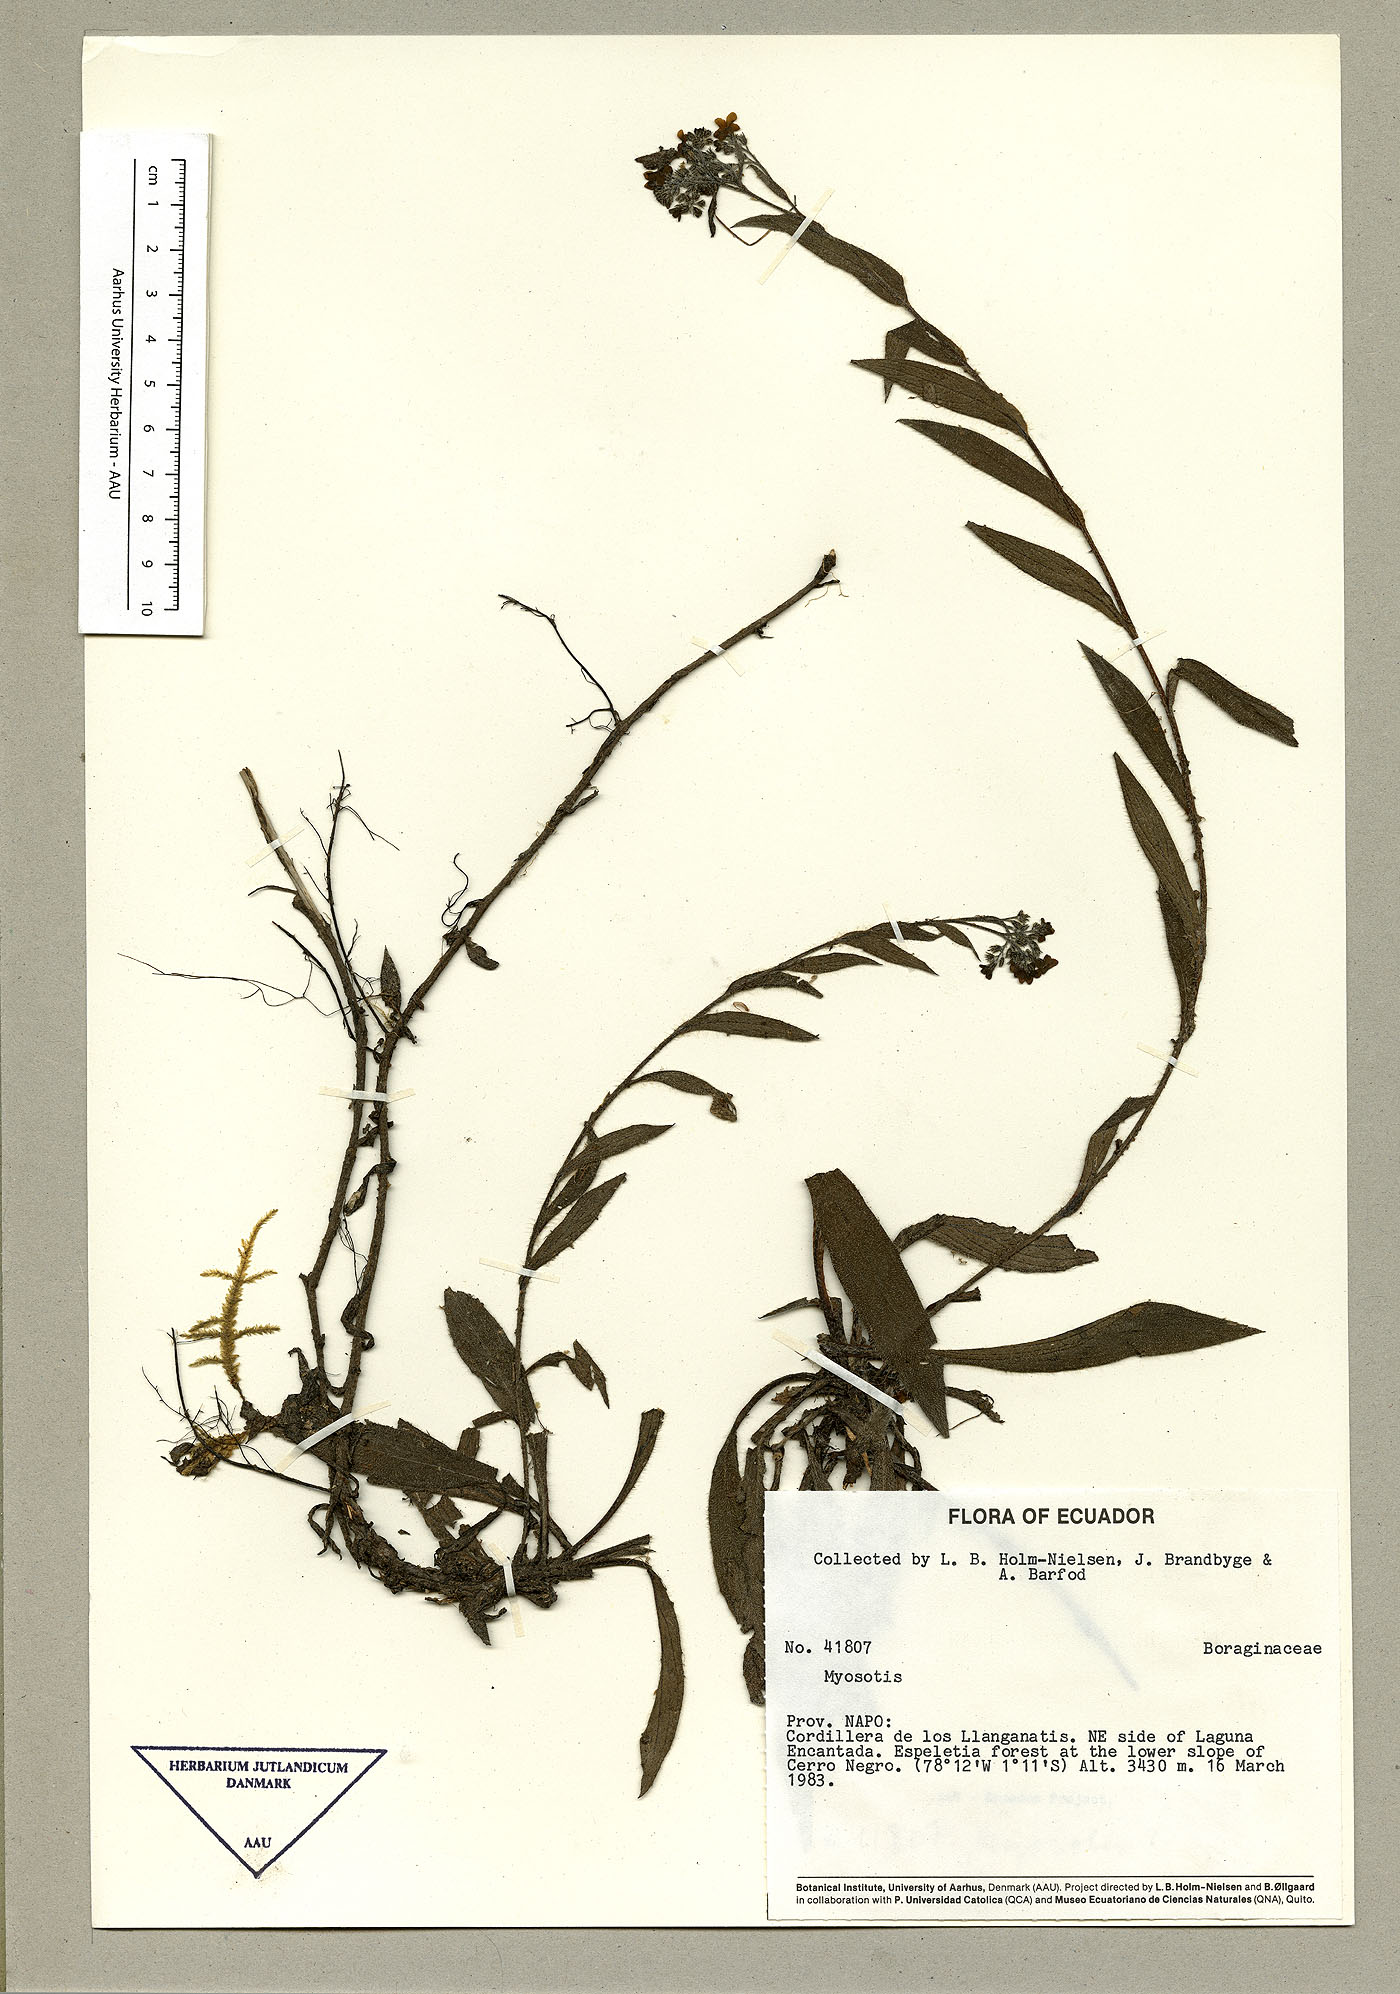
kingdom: Plantae
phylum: Tracheophyta
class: Magnoliopsida
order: Boraginales
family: Boraginaceae
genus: Moritzia
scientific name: Moritzia lindenii
